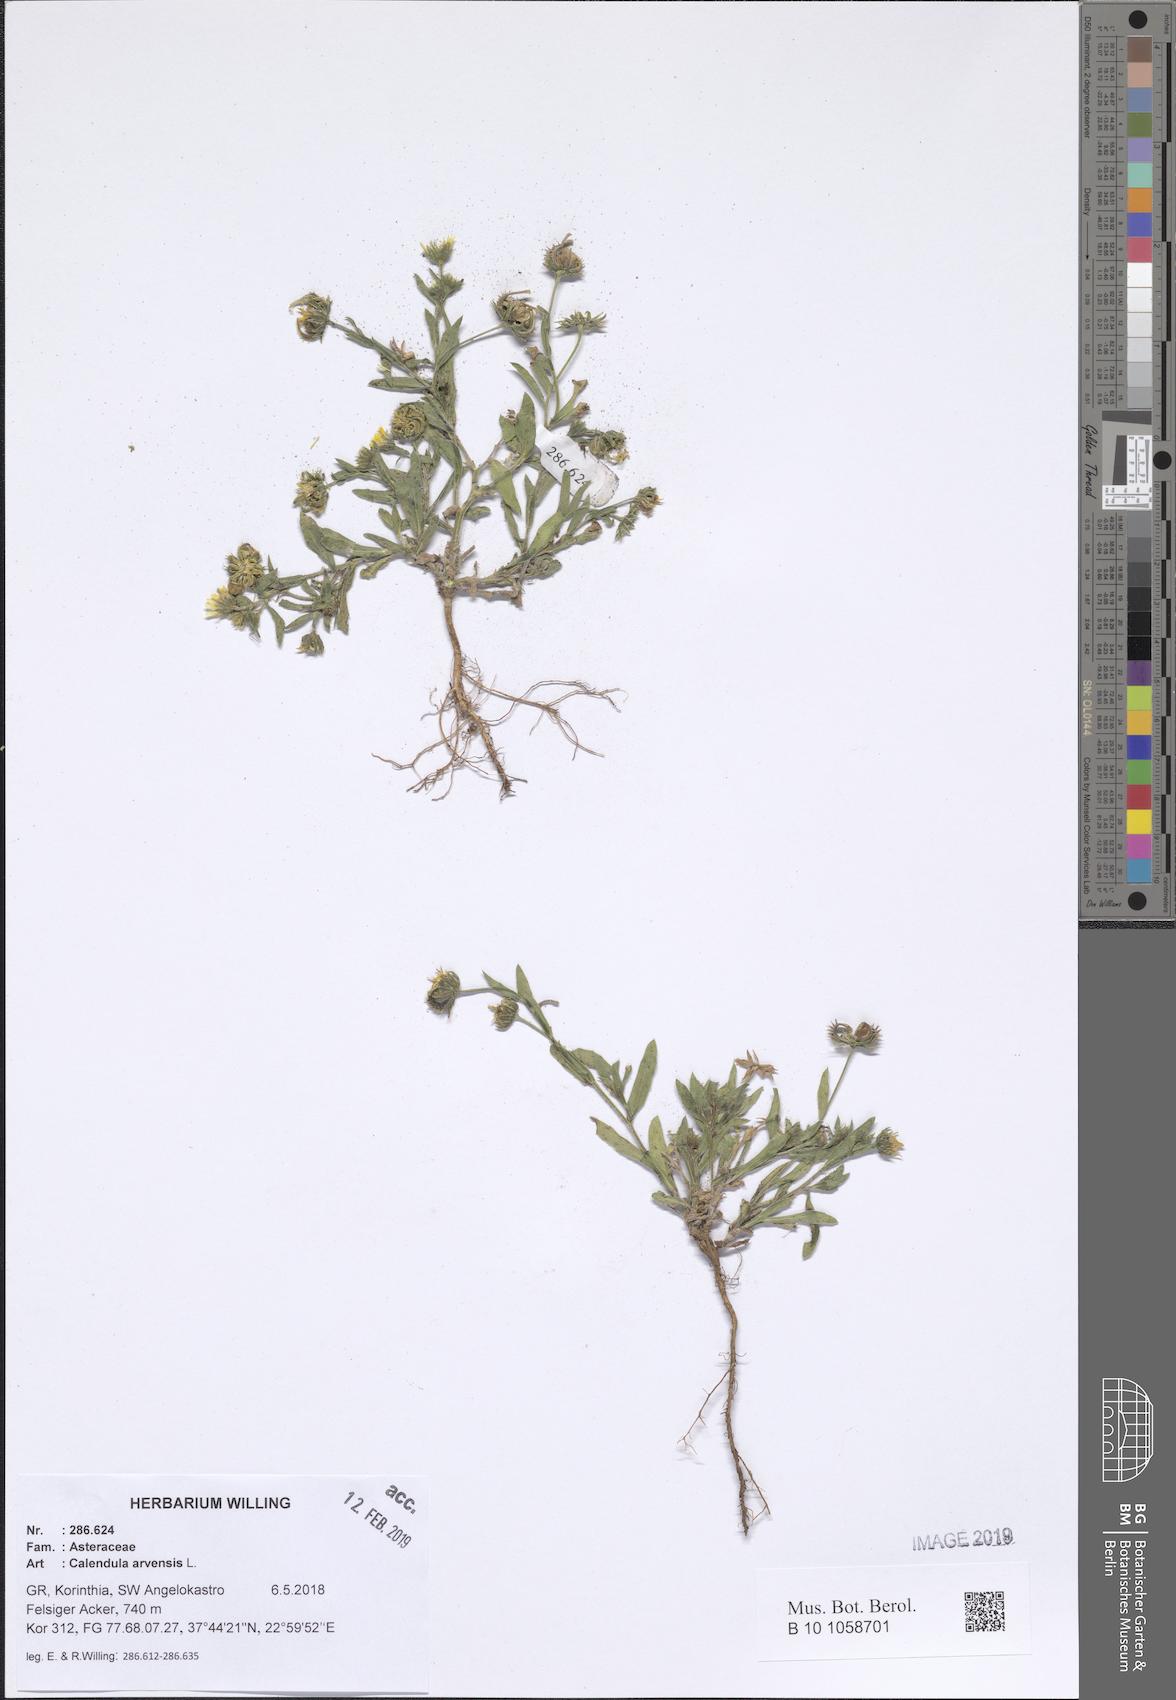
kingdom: Plantae
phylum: Tracheophyta
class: Magnoliopsida
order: Asterales
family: Asteraceae
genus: Calendula
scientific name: Calendula arvensis
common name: Field marigold
